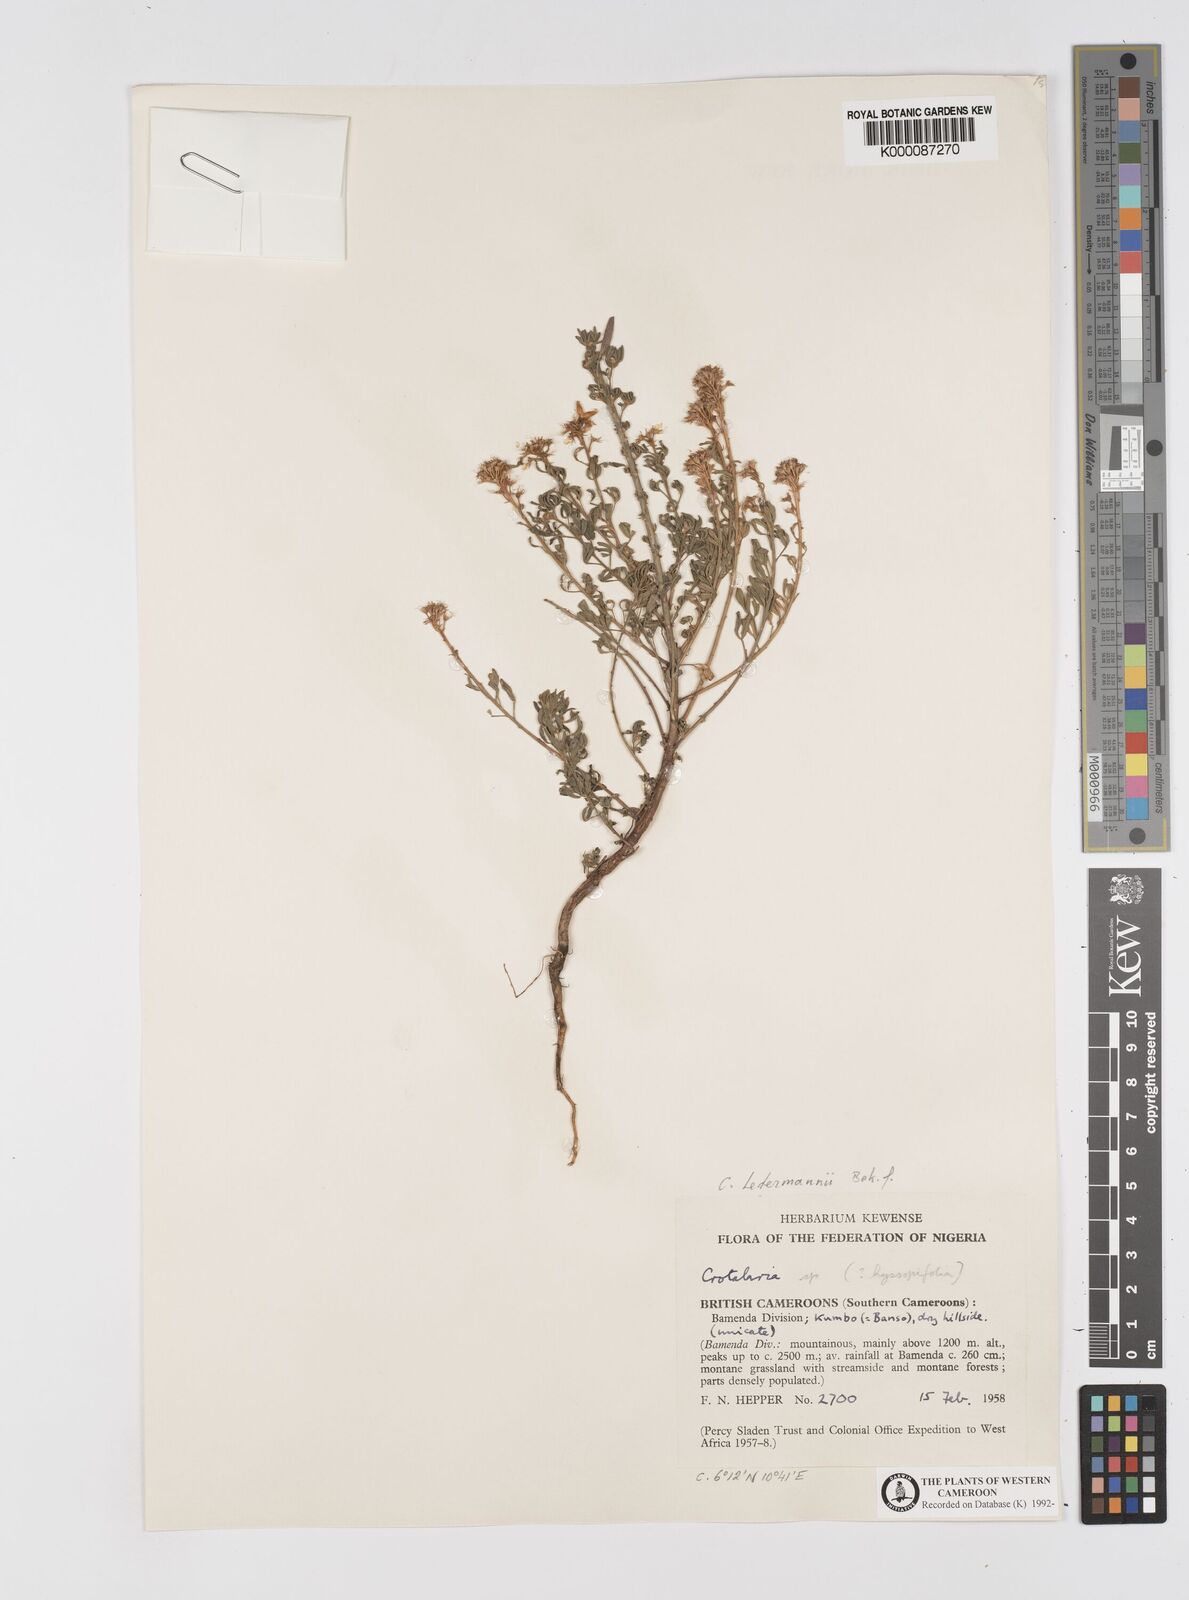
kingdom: Plantae
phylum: Tracheophyta
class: Magnoliopsida
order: Fabales
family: Fabaceae
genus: Crotalaria
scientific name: Crotalaria ledermannii
